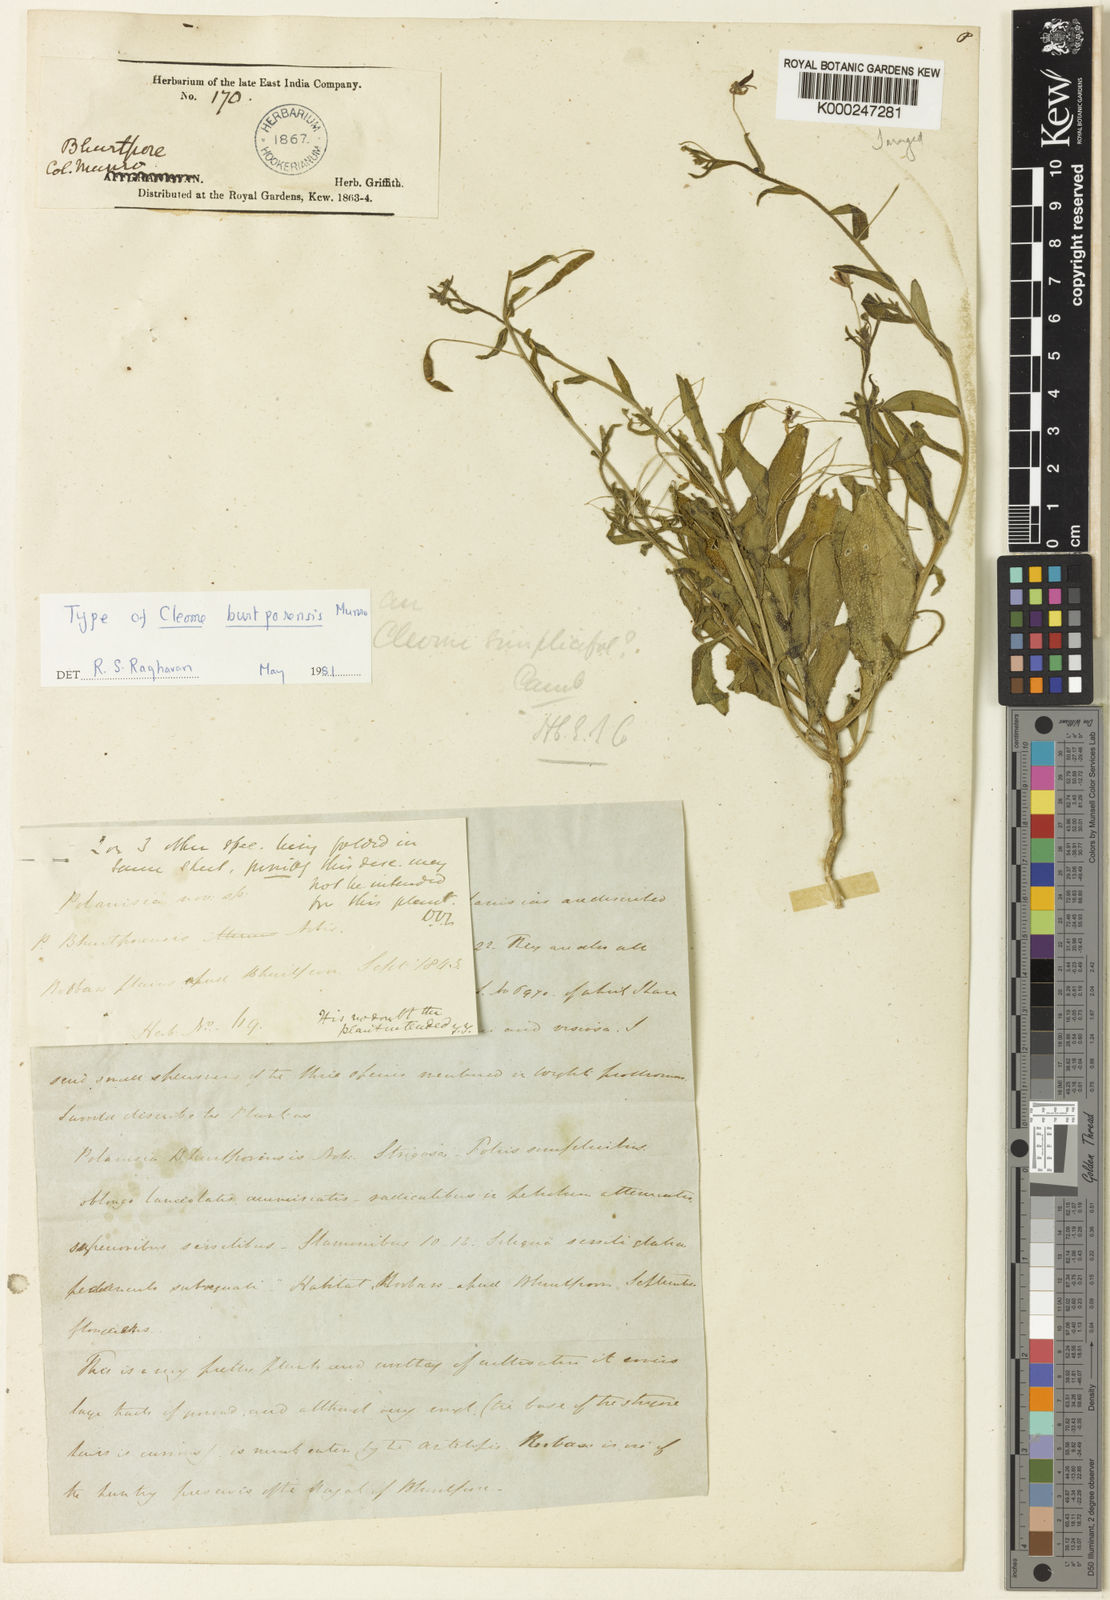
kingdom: Plantae
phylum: Tracheophyta
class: Magnoliopsida
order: Brassicales
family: Cleomaceae
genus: Corynandra
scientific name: Corynandra simplicifolia
